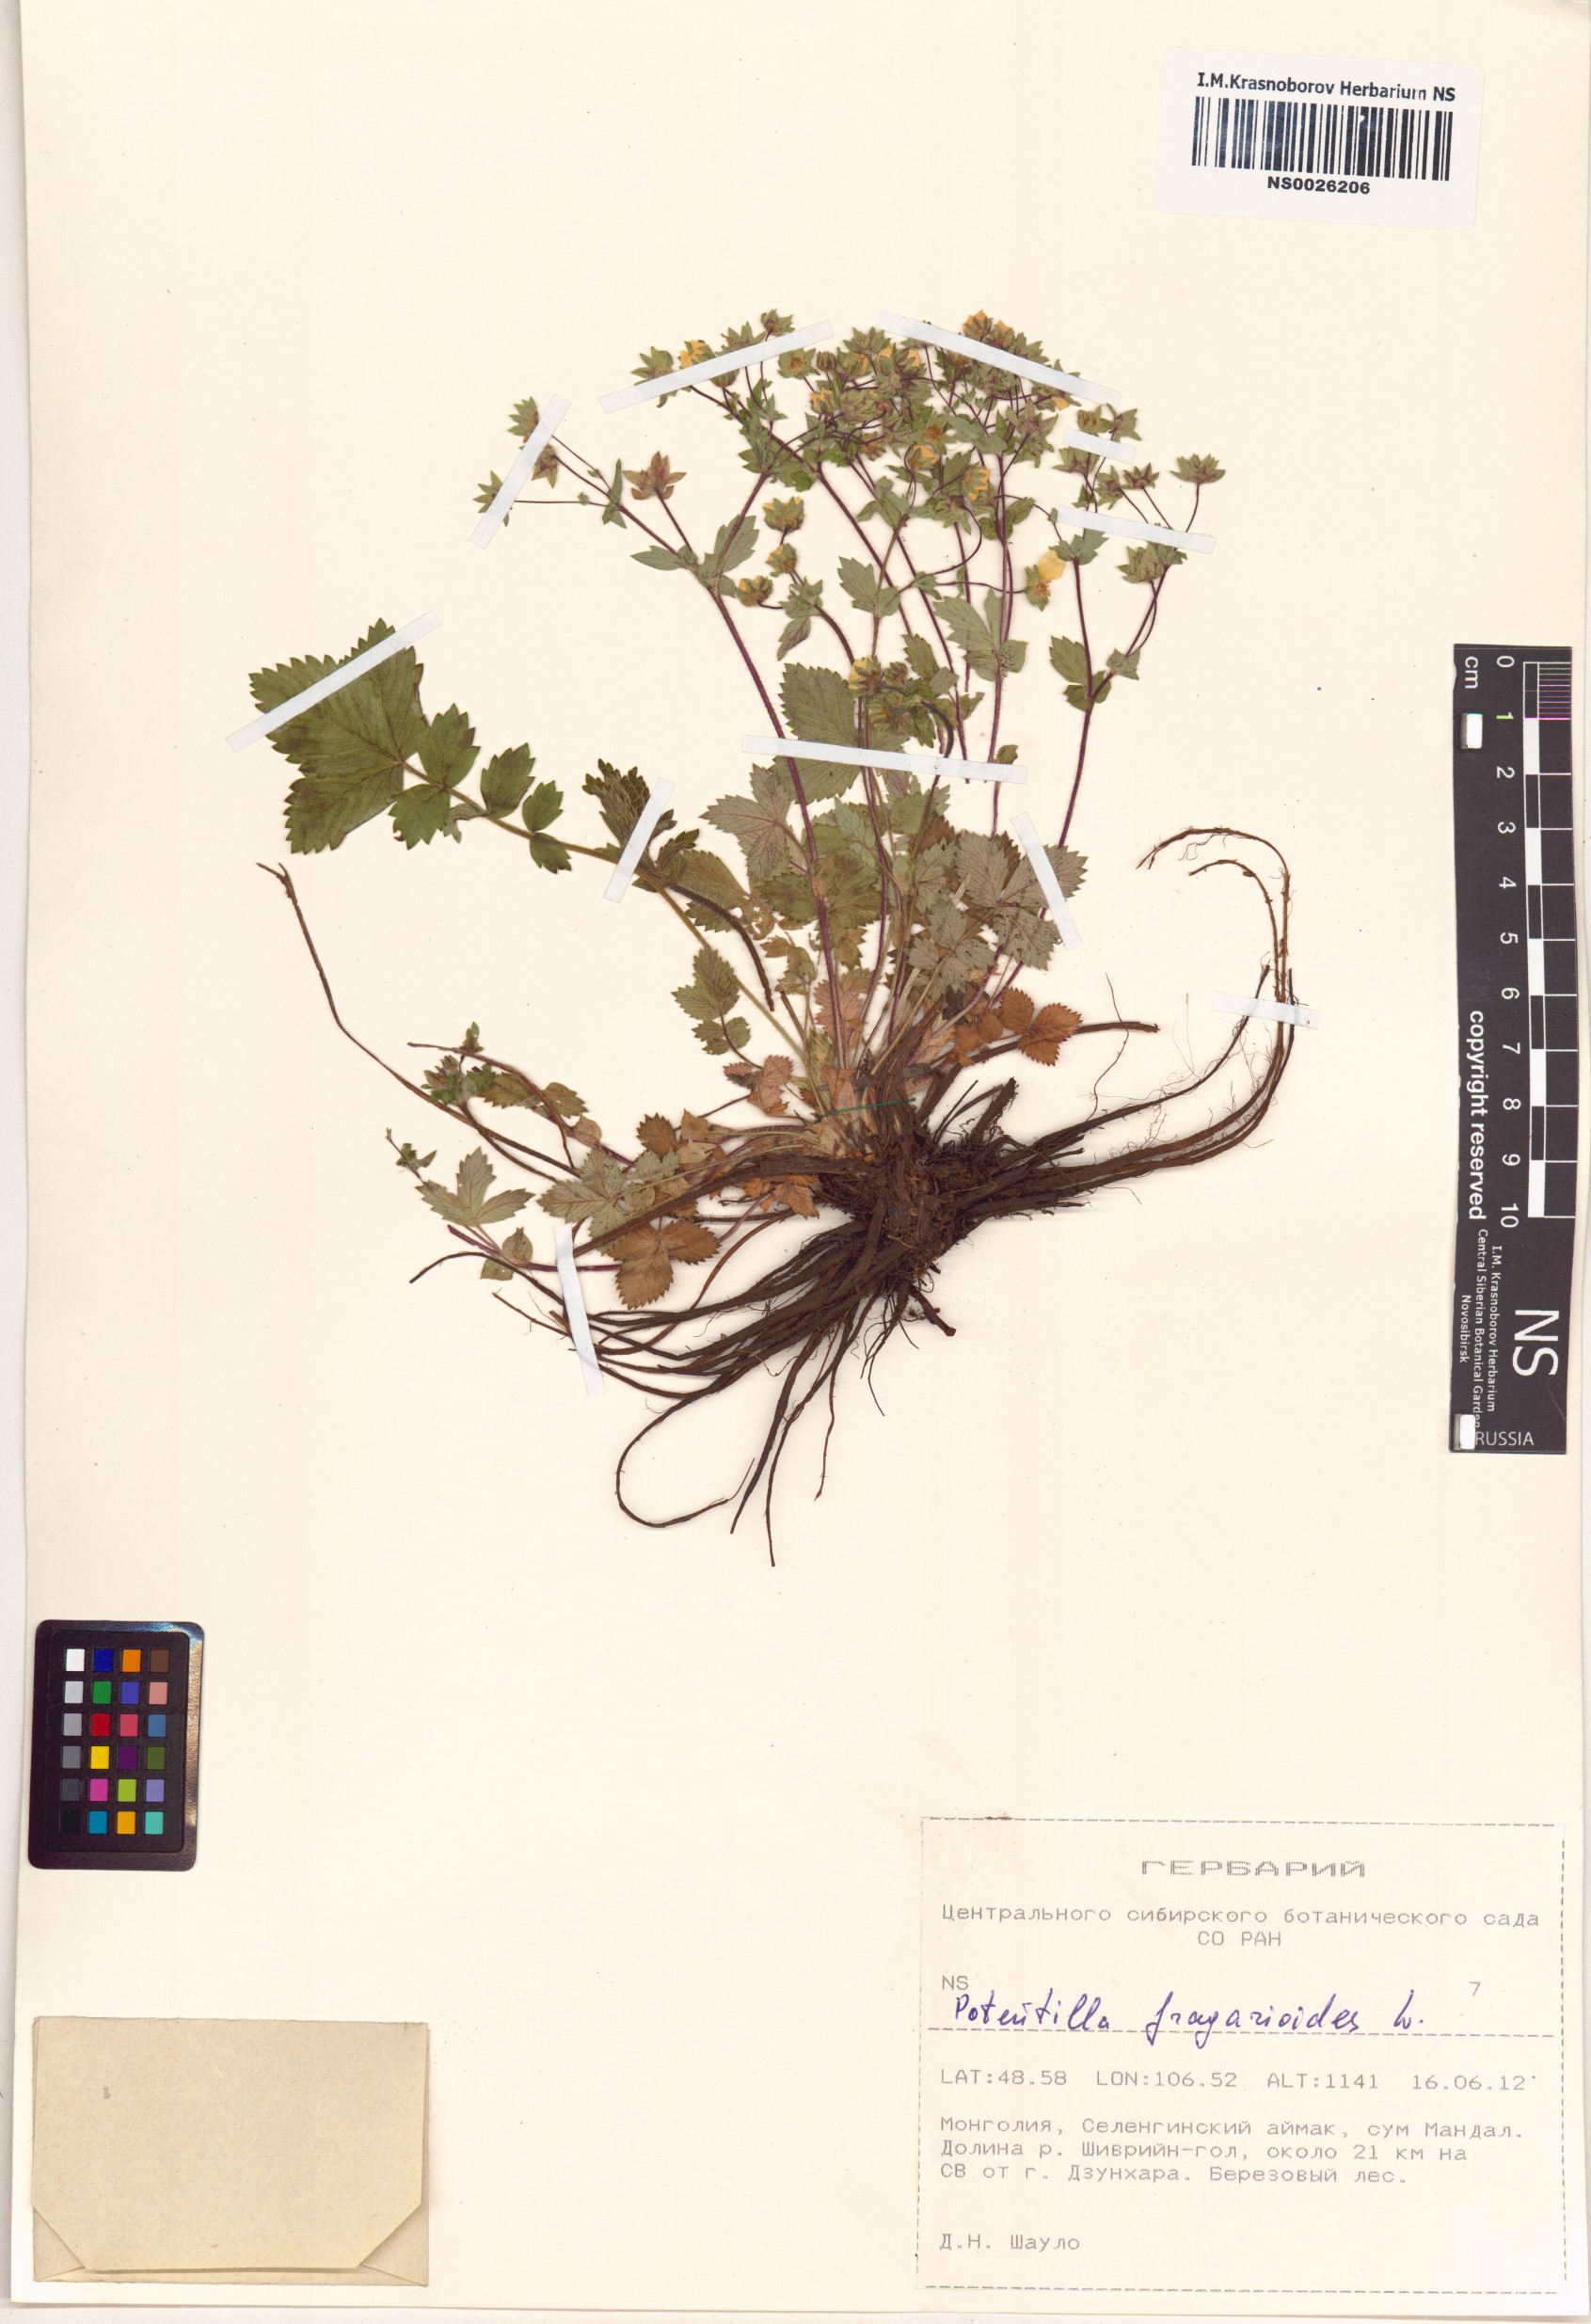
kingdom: Plantae
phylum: Tracheophyta
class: Magnoliopsida
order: Rosales
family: Rosaceae
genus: Potentilla
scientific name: Potentilla fragarioides
